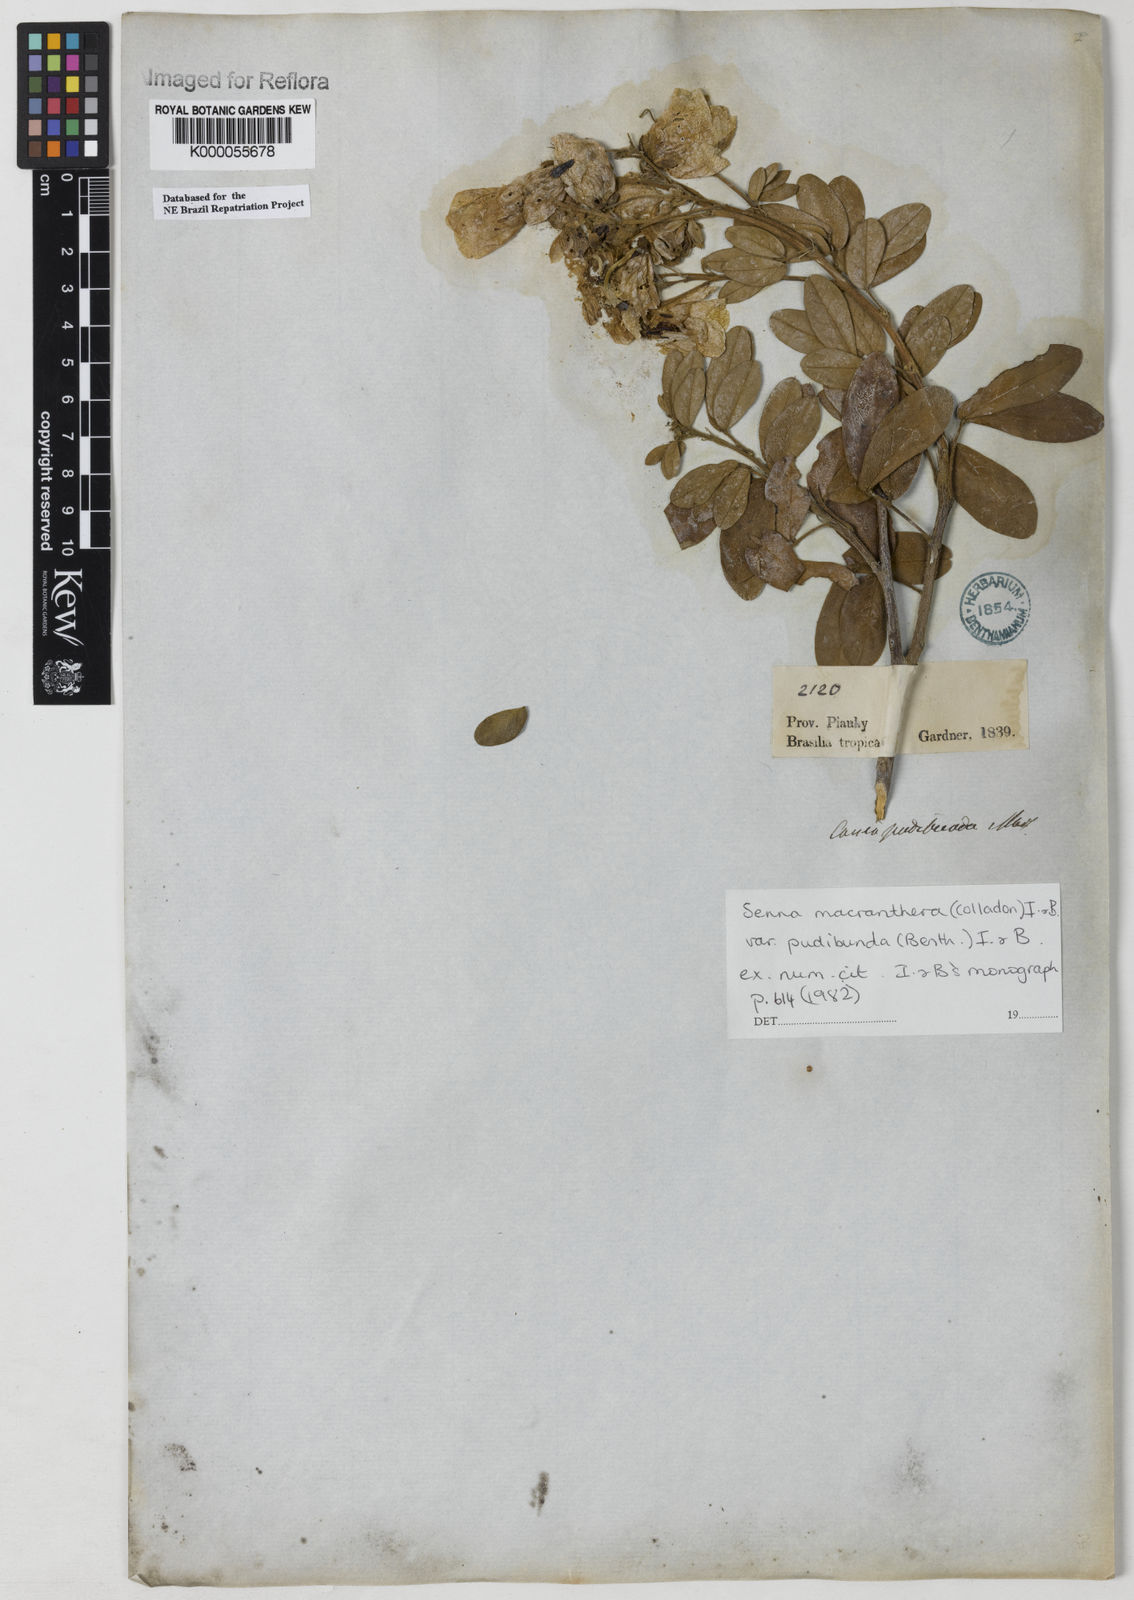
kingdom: Plantae
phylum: Tracheophyta
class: Magnoliopsida
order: Fabales
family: Fabaceae
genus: Senna
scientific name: Senna macranthera
